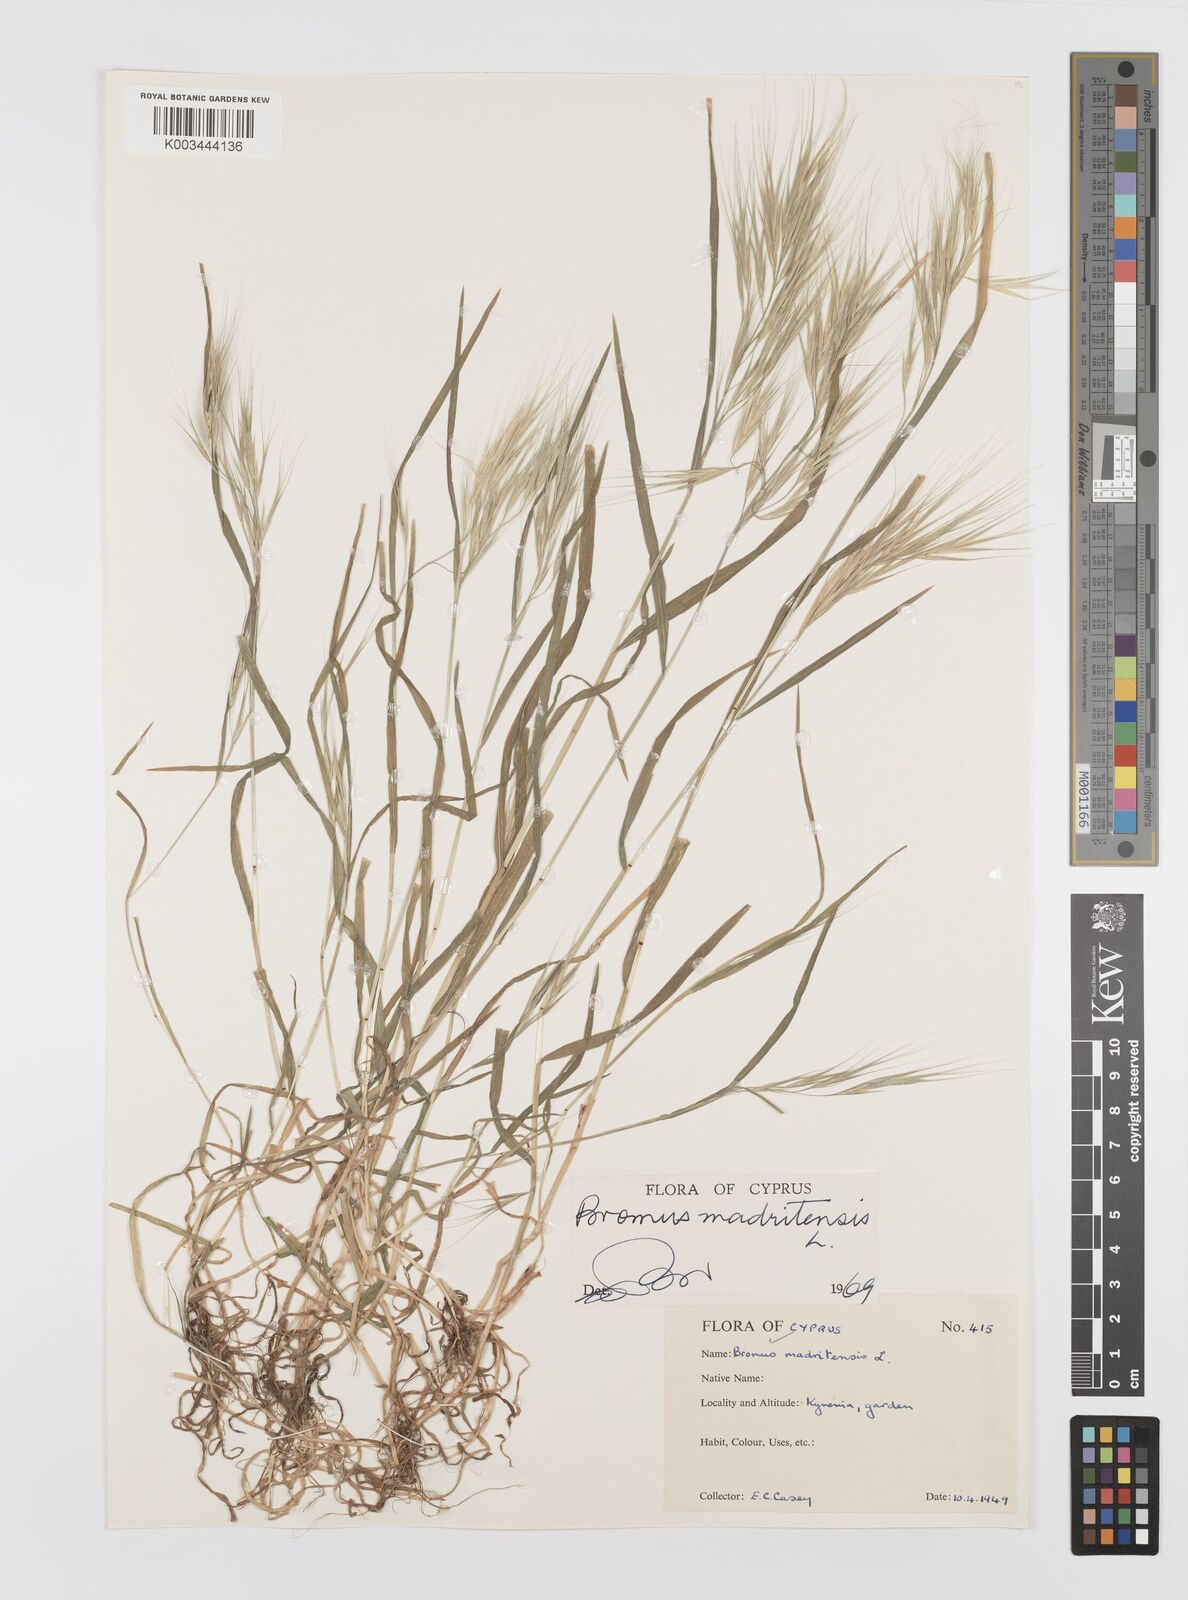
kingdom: Plantae
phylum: Tracheophyta
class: Liliopsida
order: Poales
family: Poaceae
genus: Bromus
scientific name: Bromus madritensis
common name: Compact brome
